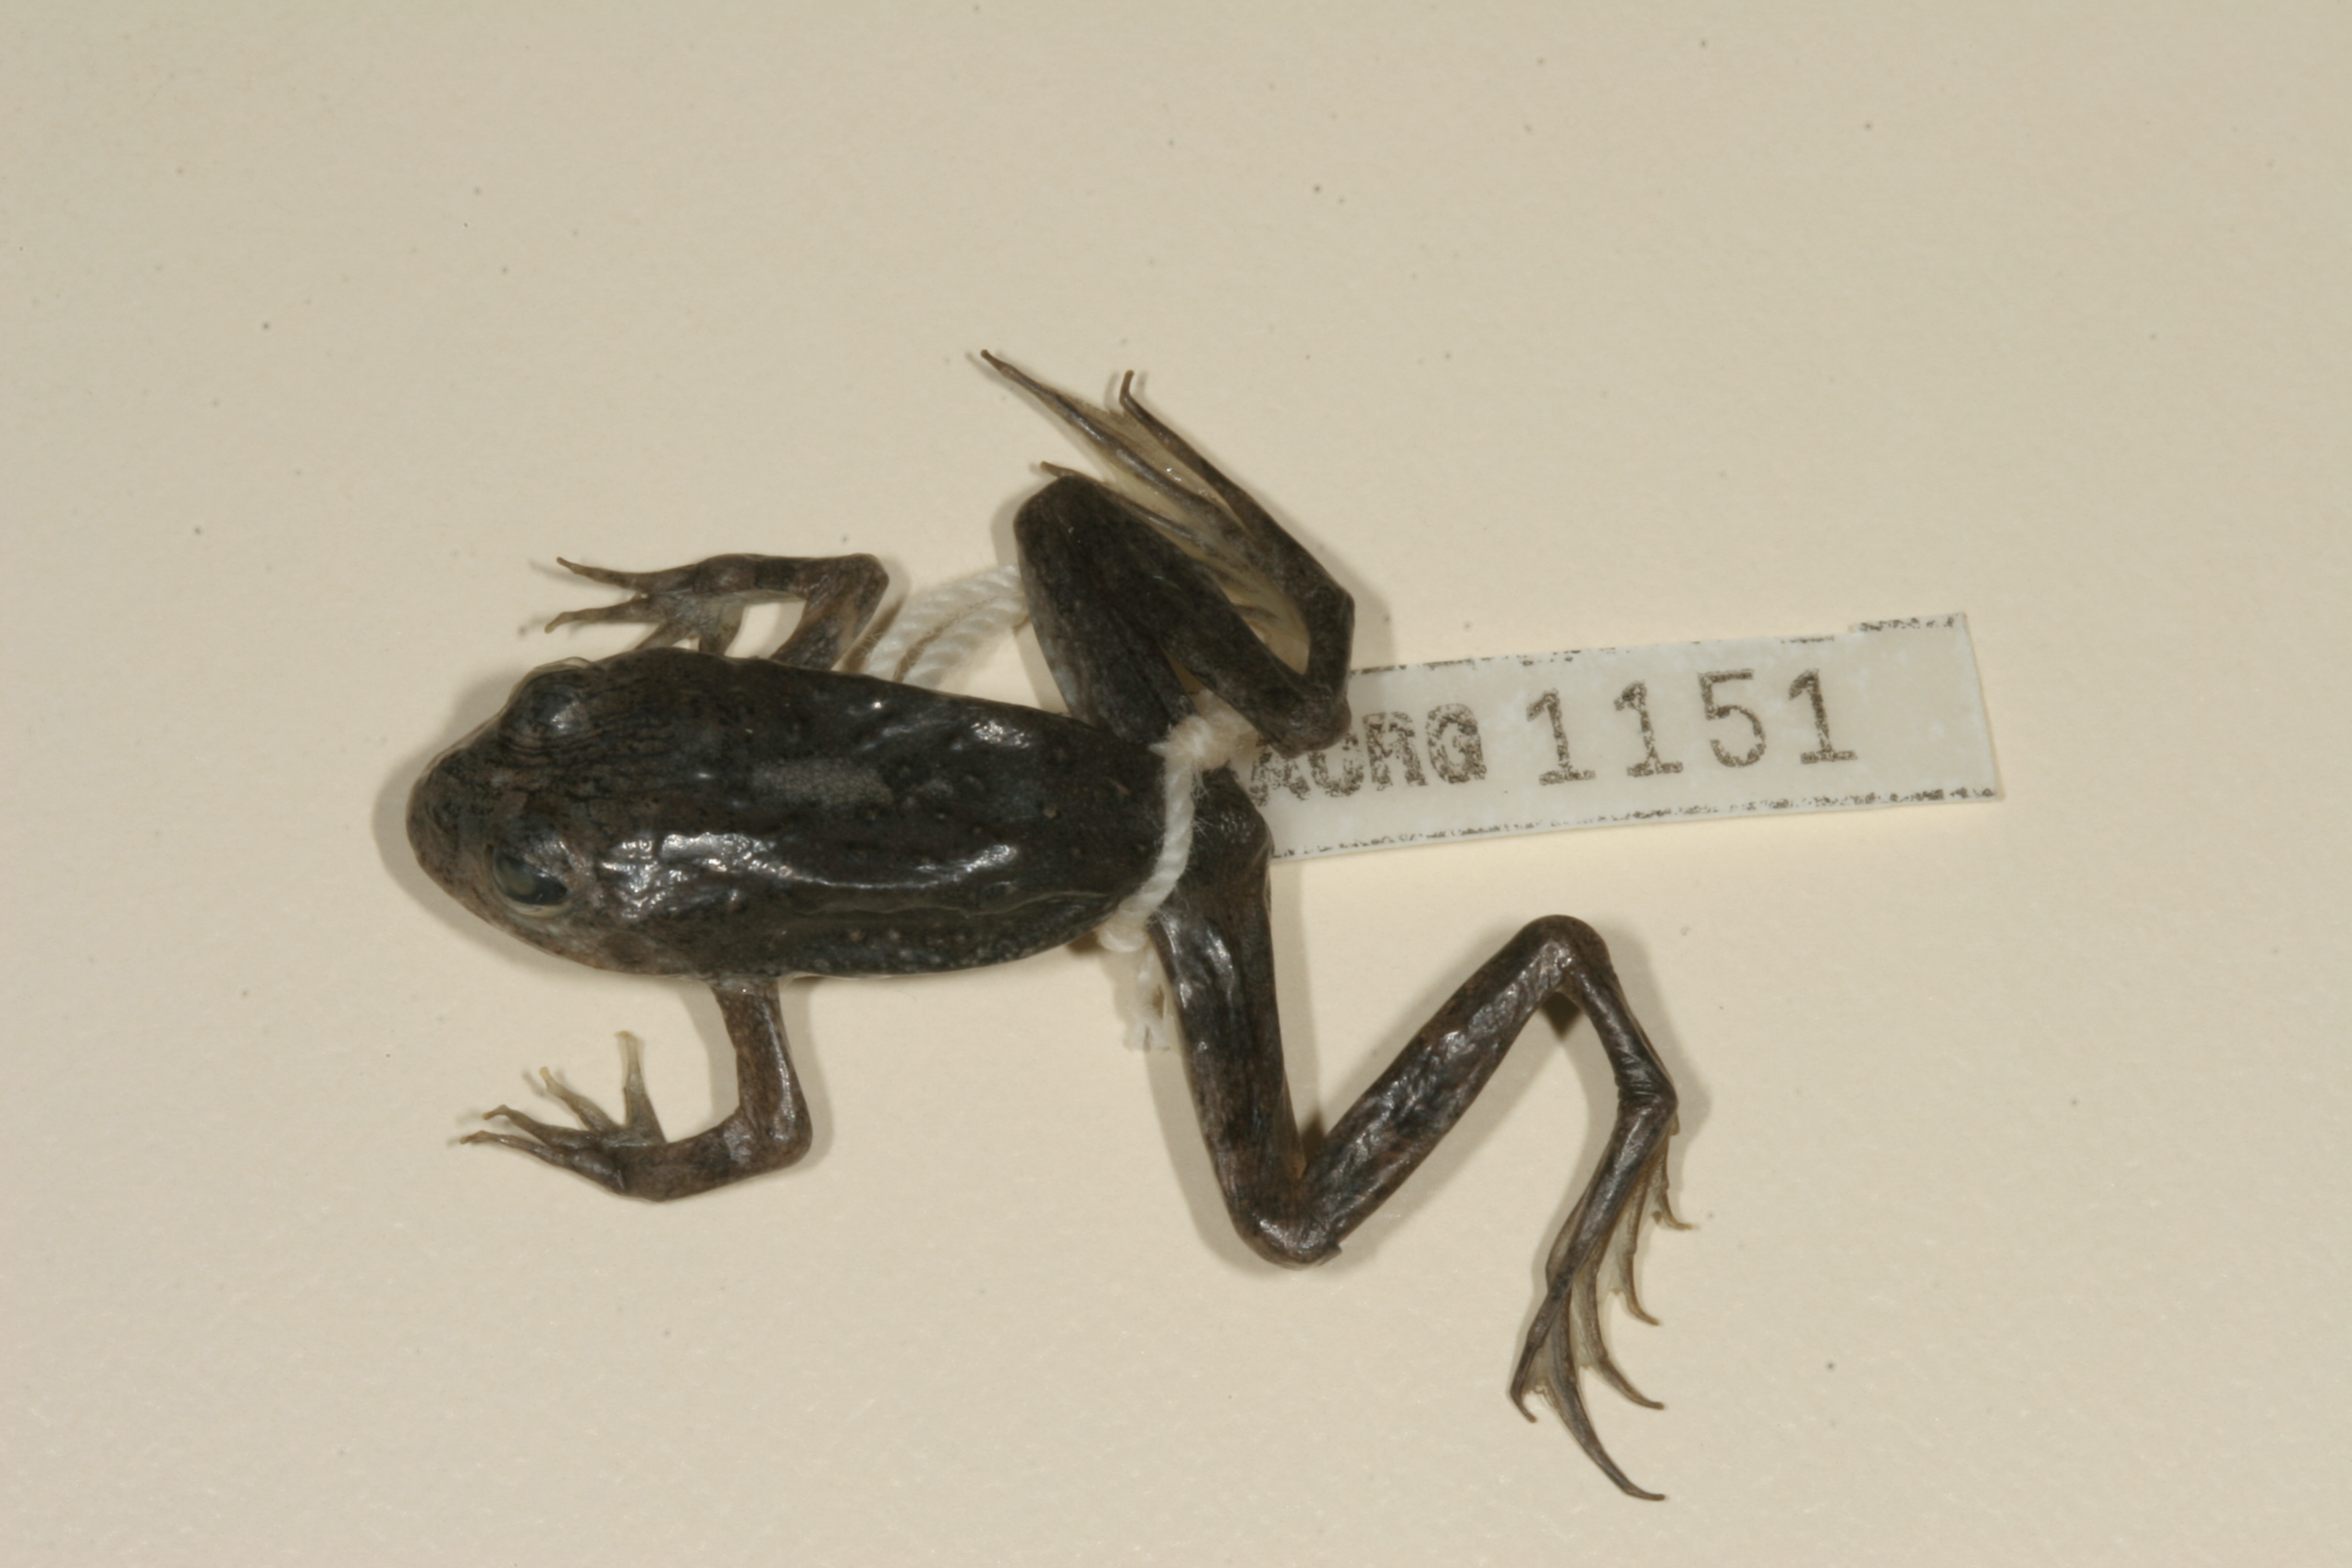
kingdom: Animalia
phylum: Chordata
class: Amphibia
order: Anura
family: Pyxicephalidae
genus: Amietia
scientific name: Amietia vertebralis
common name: Drakensberg stream frog
